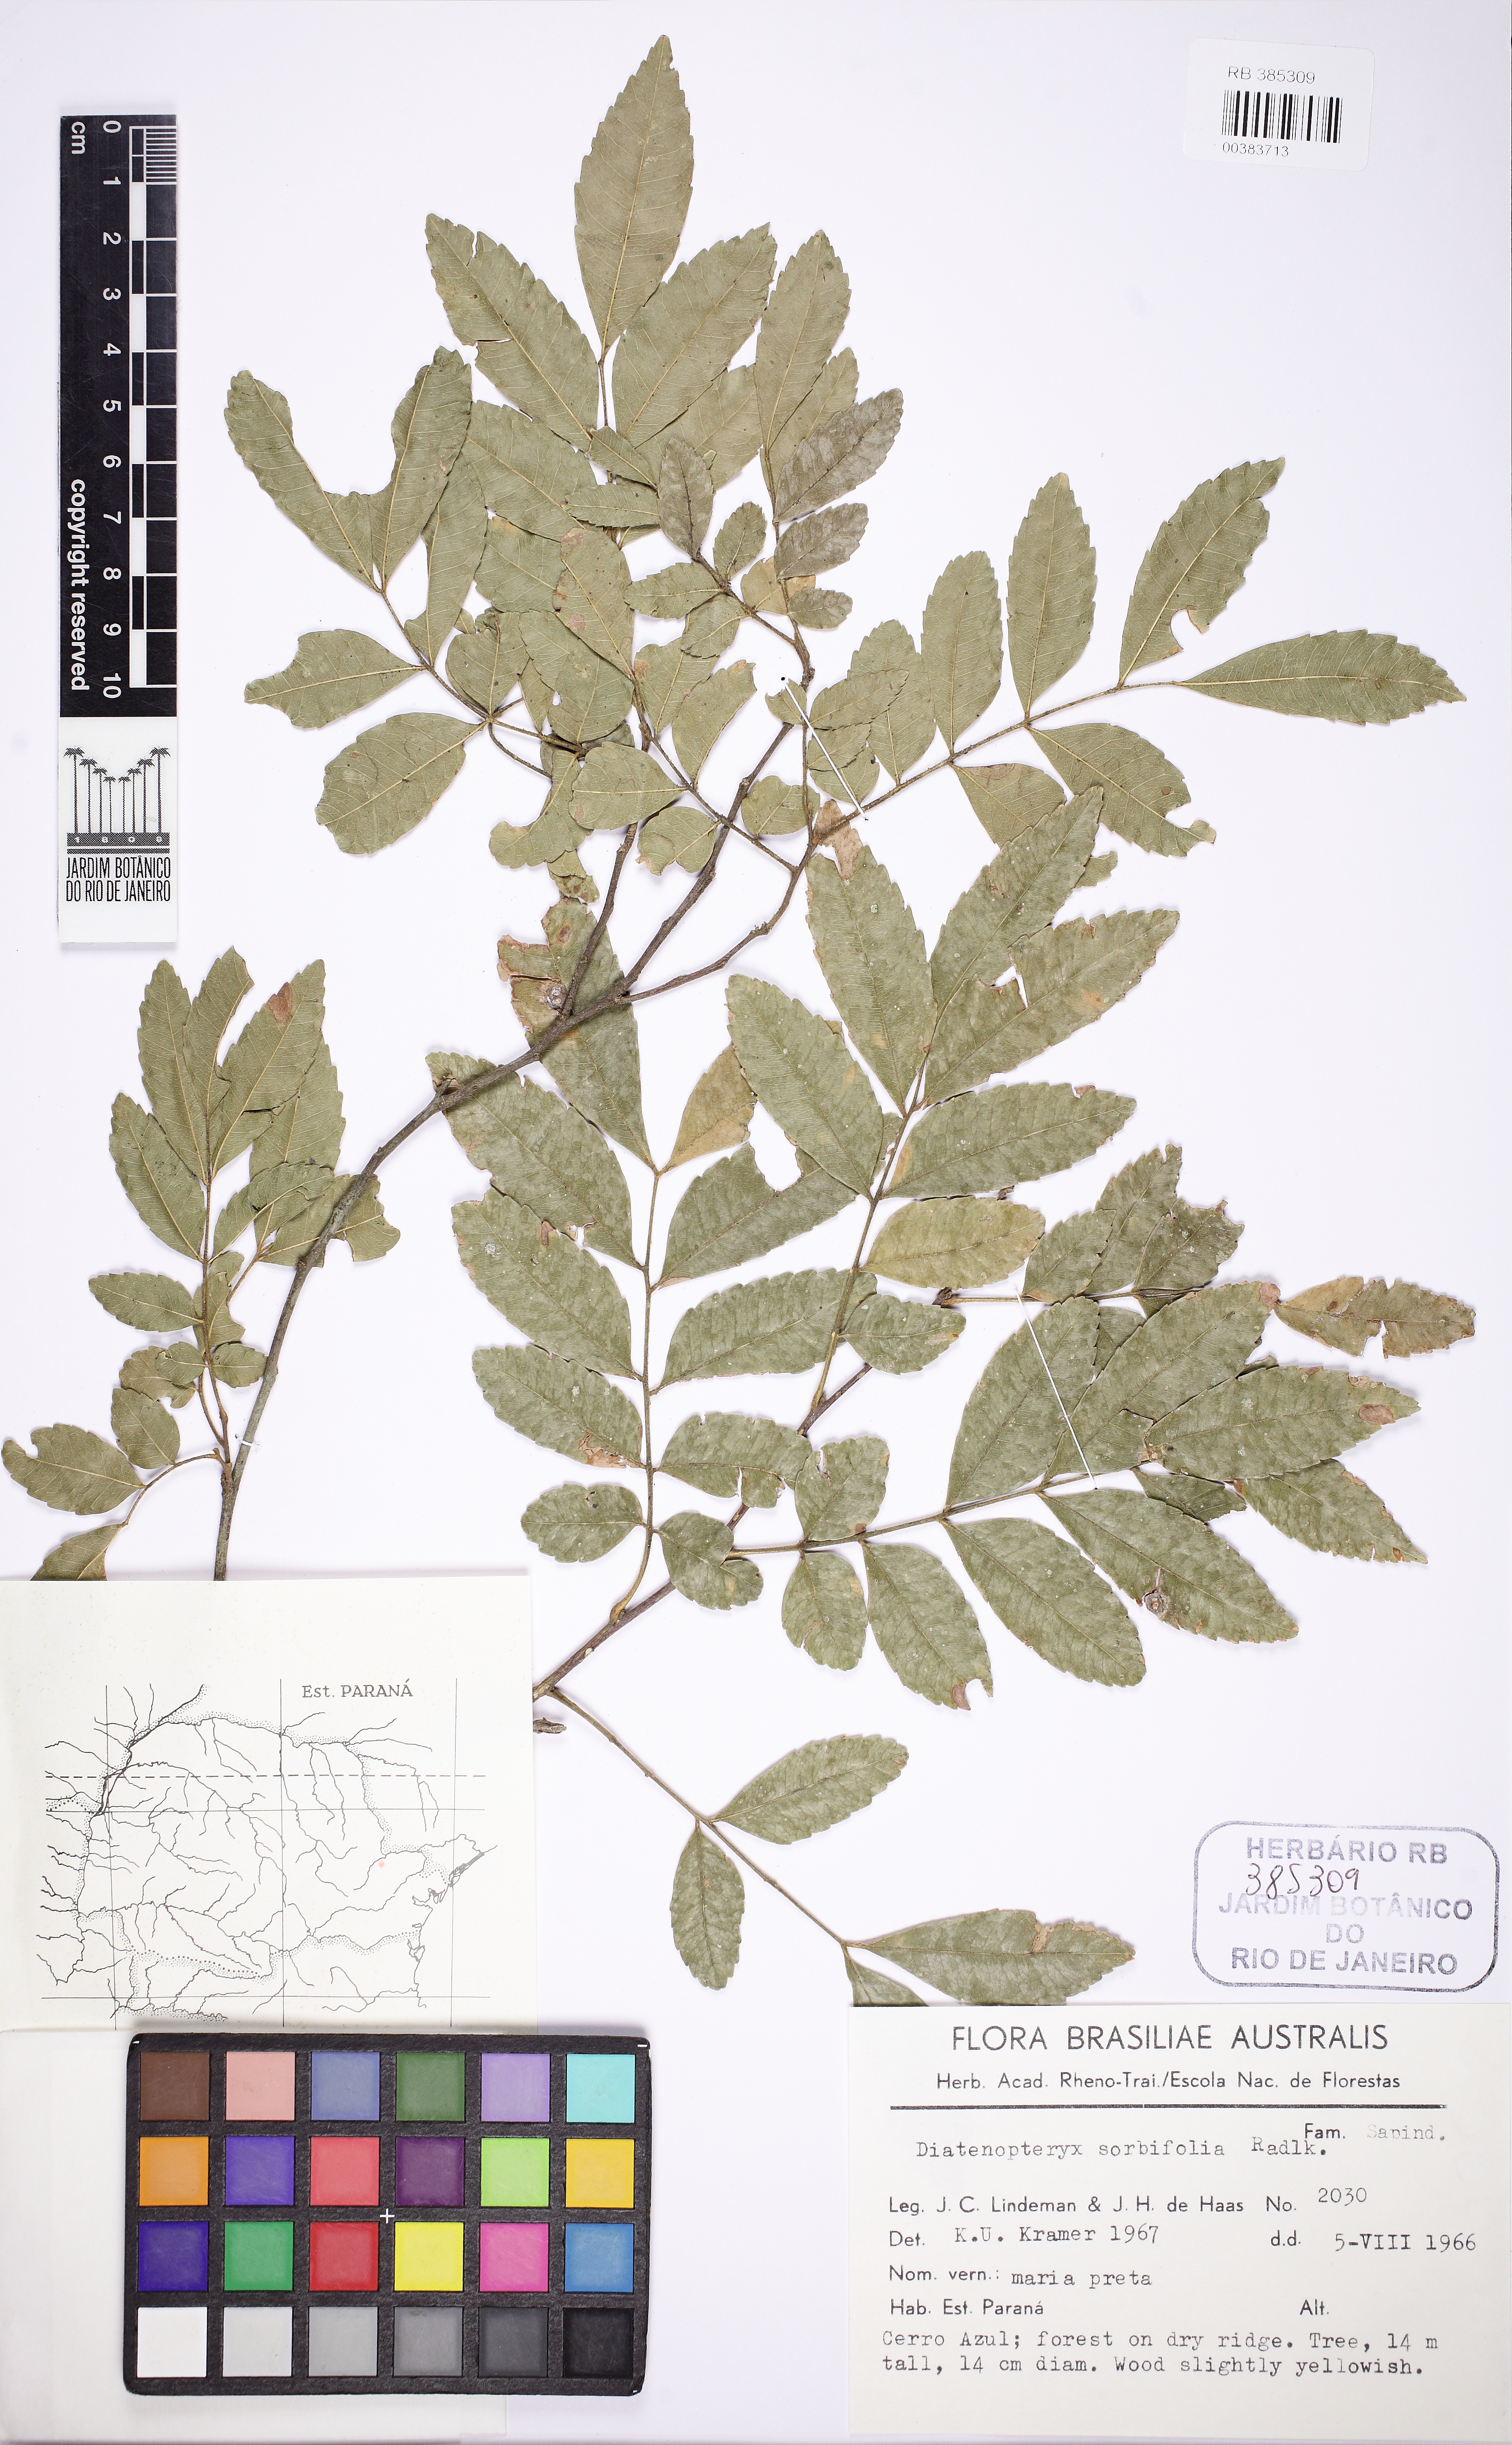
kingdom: Plantae
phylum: Tracheophyta
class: Magnoliopsida
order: Sapindales
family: Sapindaceae
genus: Diatenopteryx
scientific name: Diatenopteryx sorbifolia
